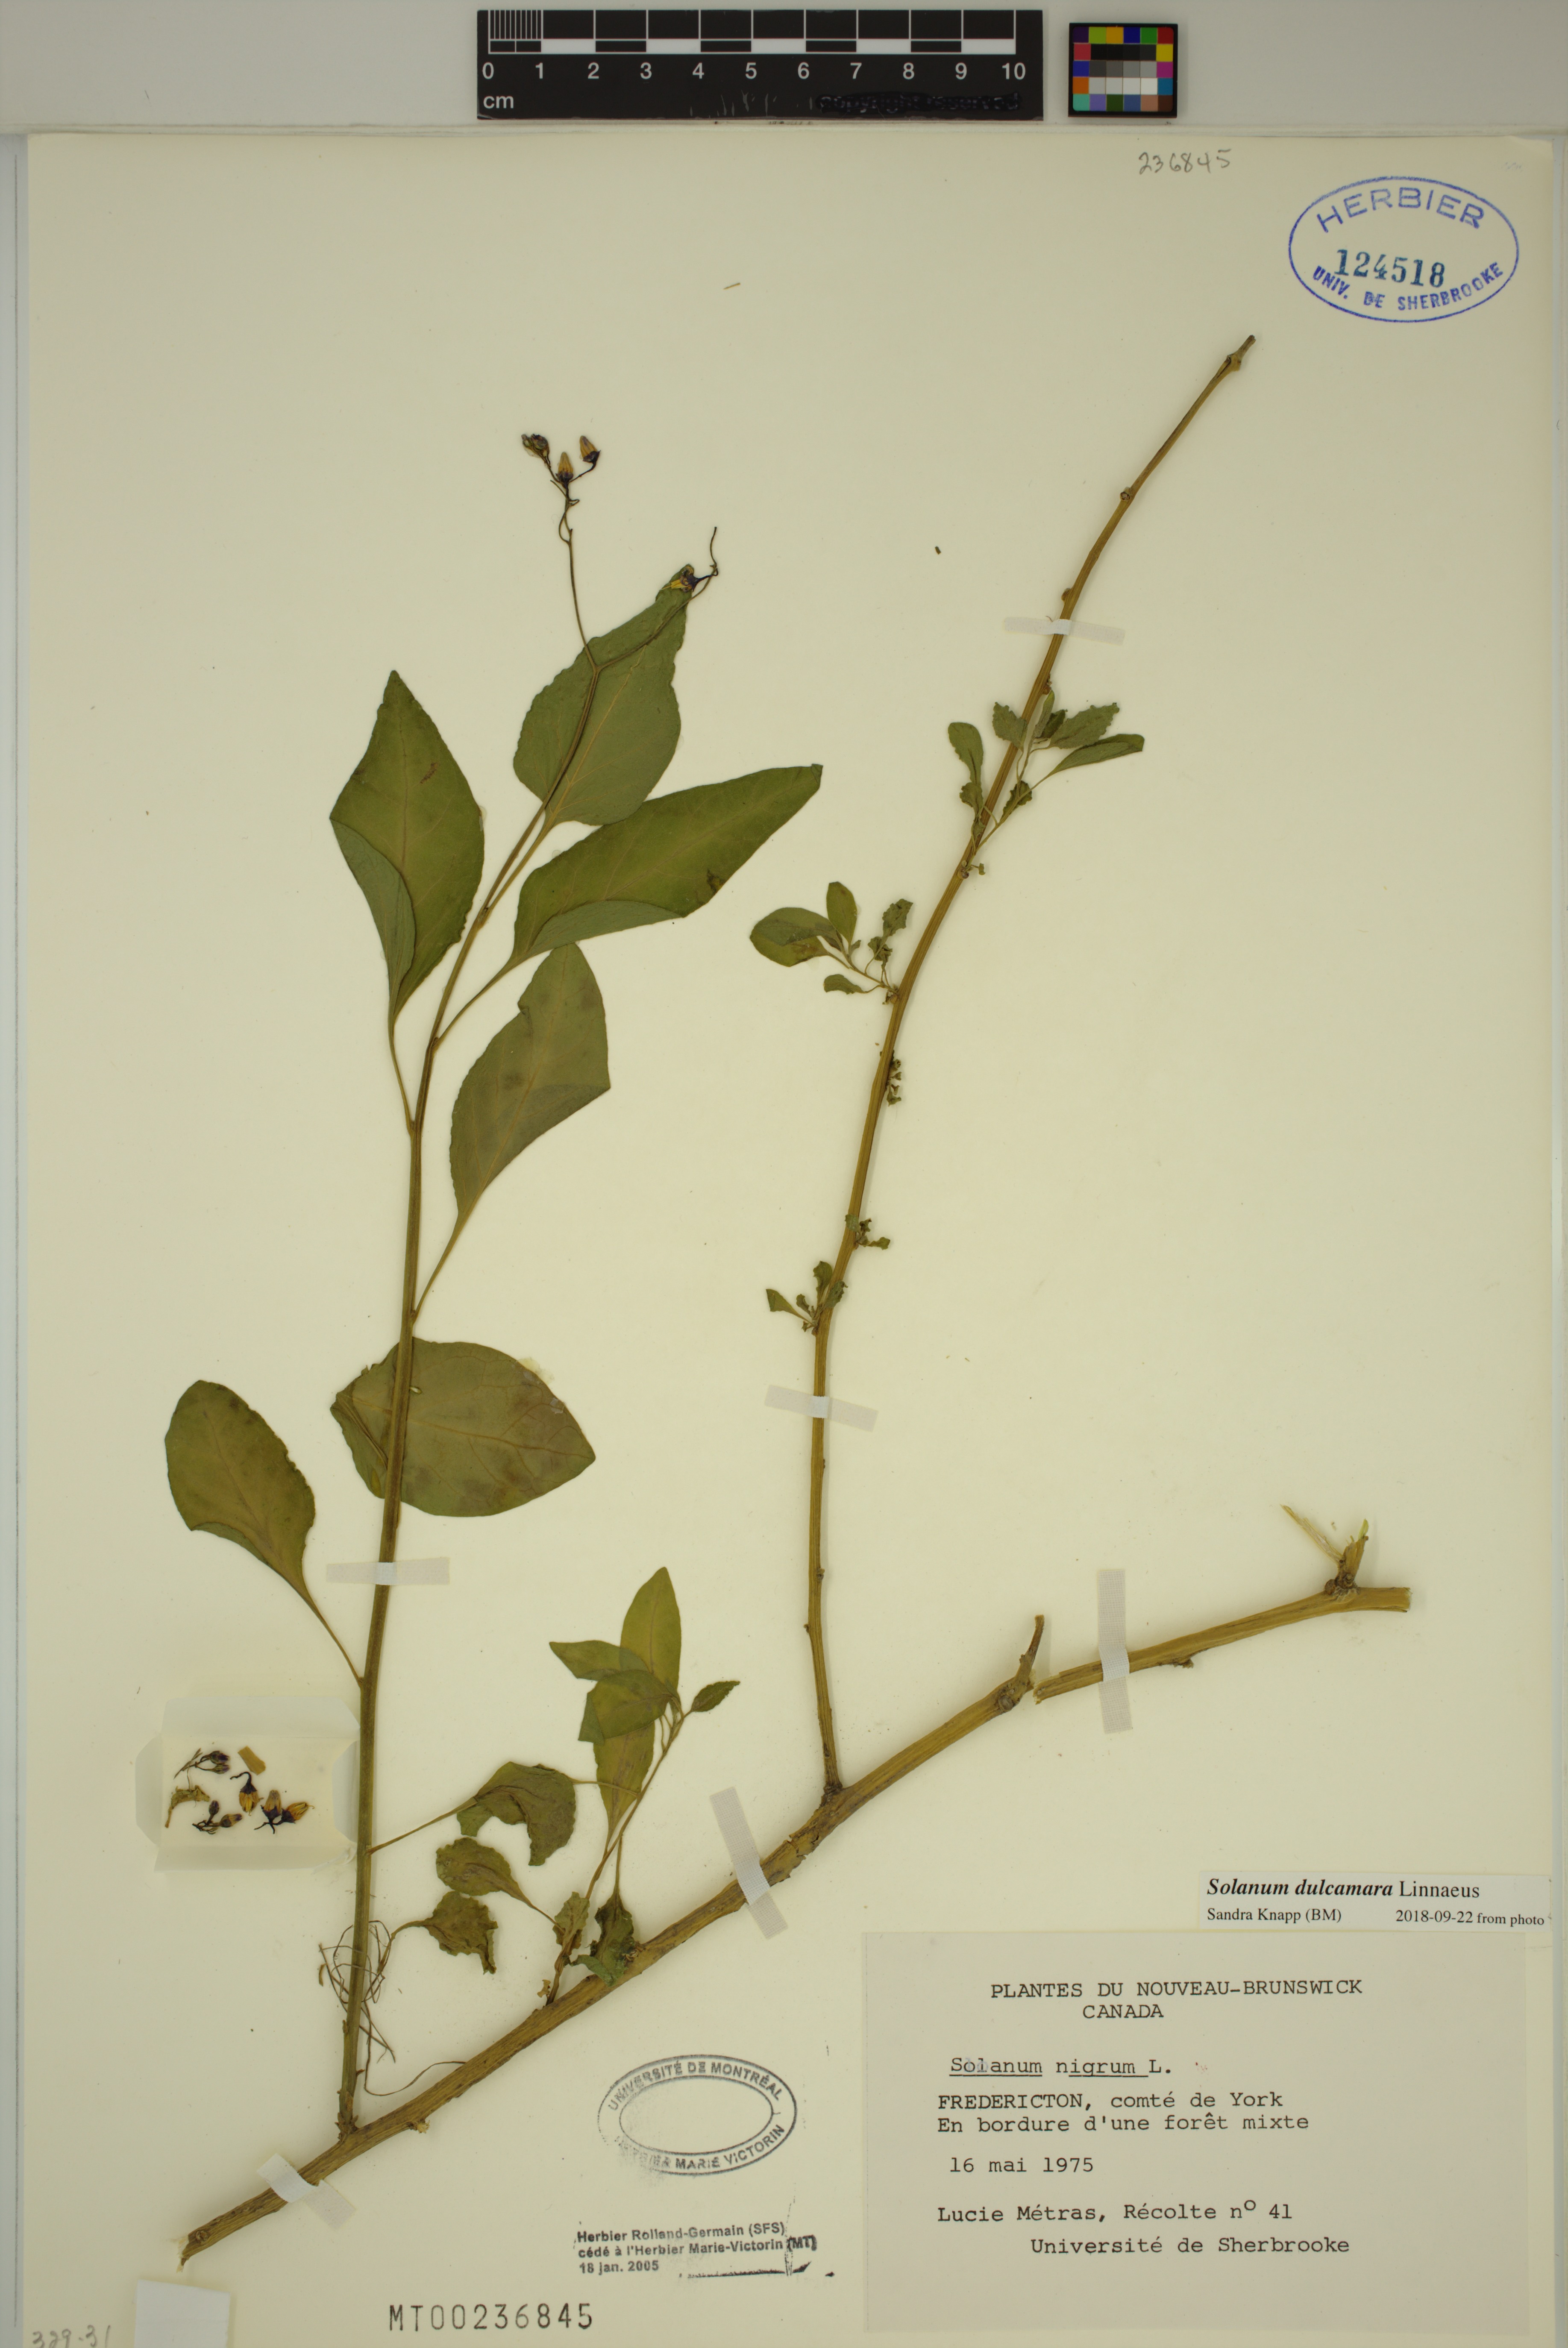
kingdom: Plantae
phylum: Tracheophyta
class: Magnoliopsida
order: Solanales
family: Solanaceae
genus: Solanum
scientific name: Solanum dulcamara
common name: Climbing nightshade
